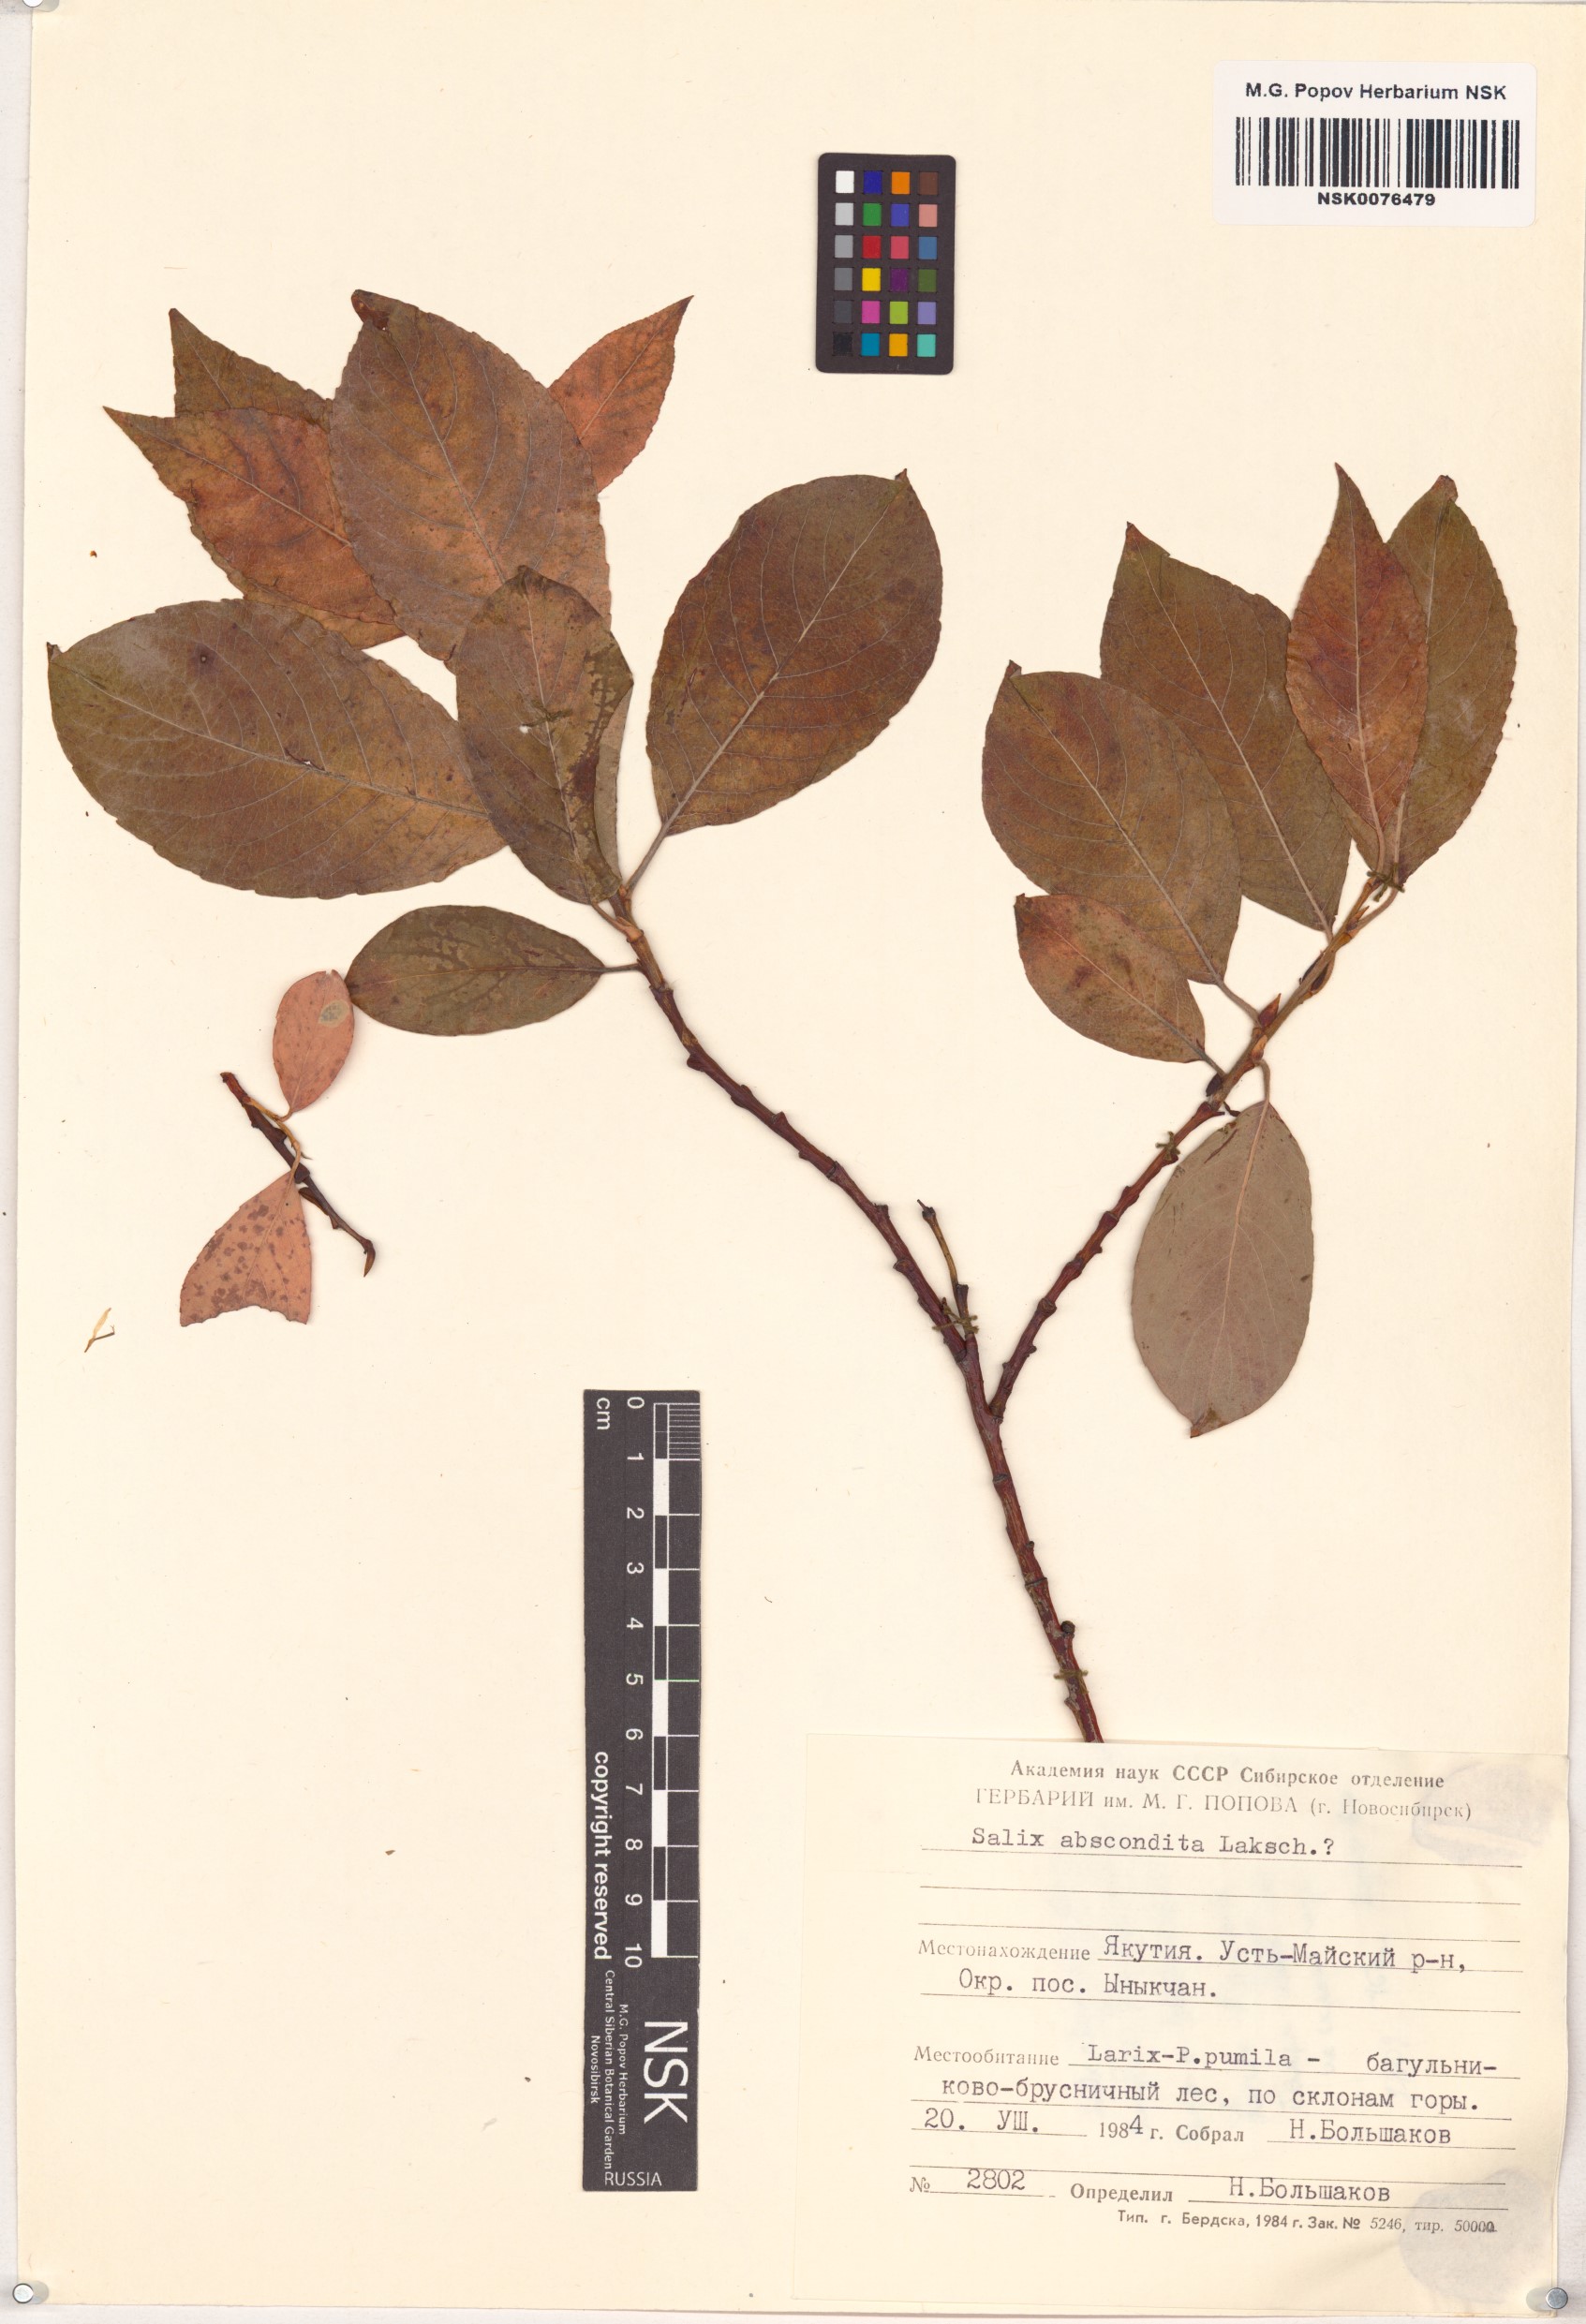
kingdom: Plantae
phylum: Tracheophyta
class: Magnoliopsida
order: Malpighiales
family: Salicaceae
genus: Salix
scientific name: Salix abscondita
